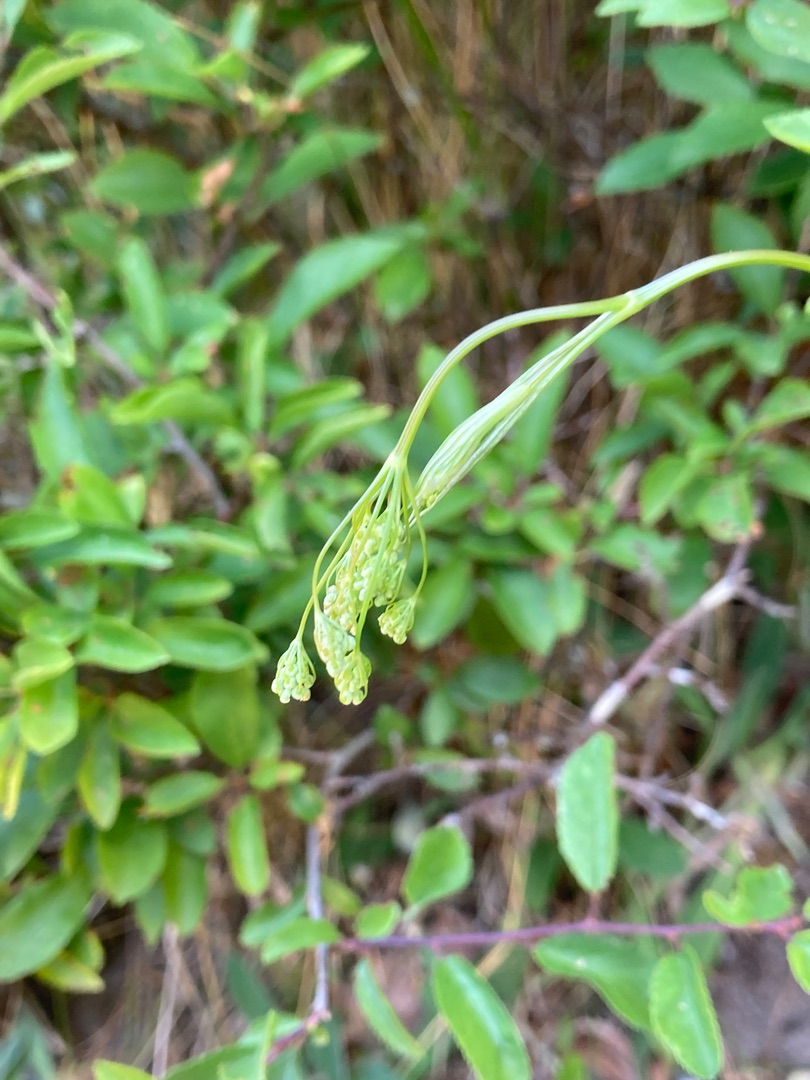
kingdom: Plantae
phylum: Tracheophyta
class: Magnoliopsida
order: Apiales
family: Apiaceae
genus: Pimpinella
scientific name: Pimpinella saxifraga
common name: Almindelig pimpinelle
